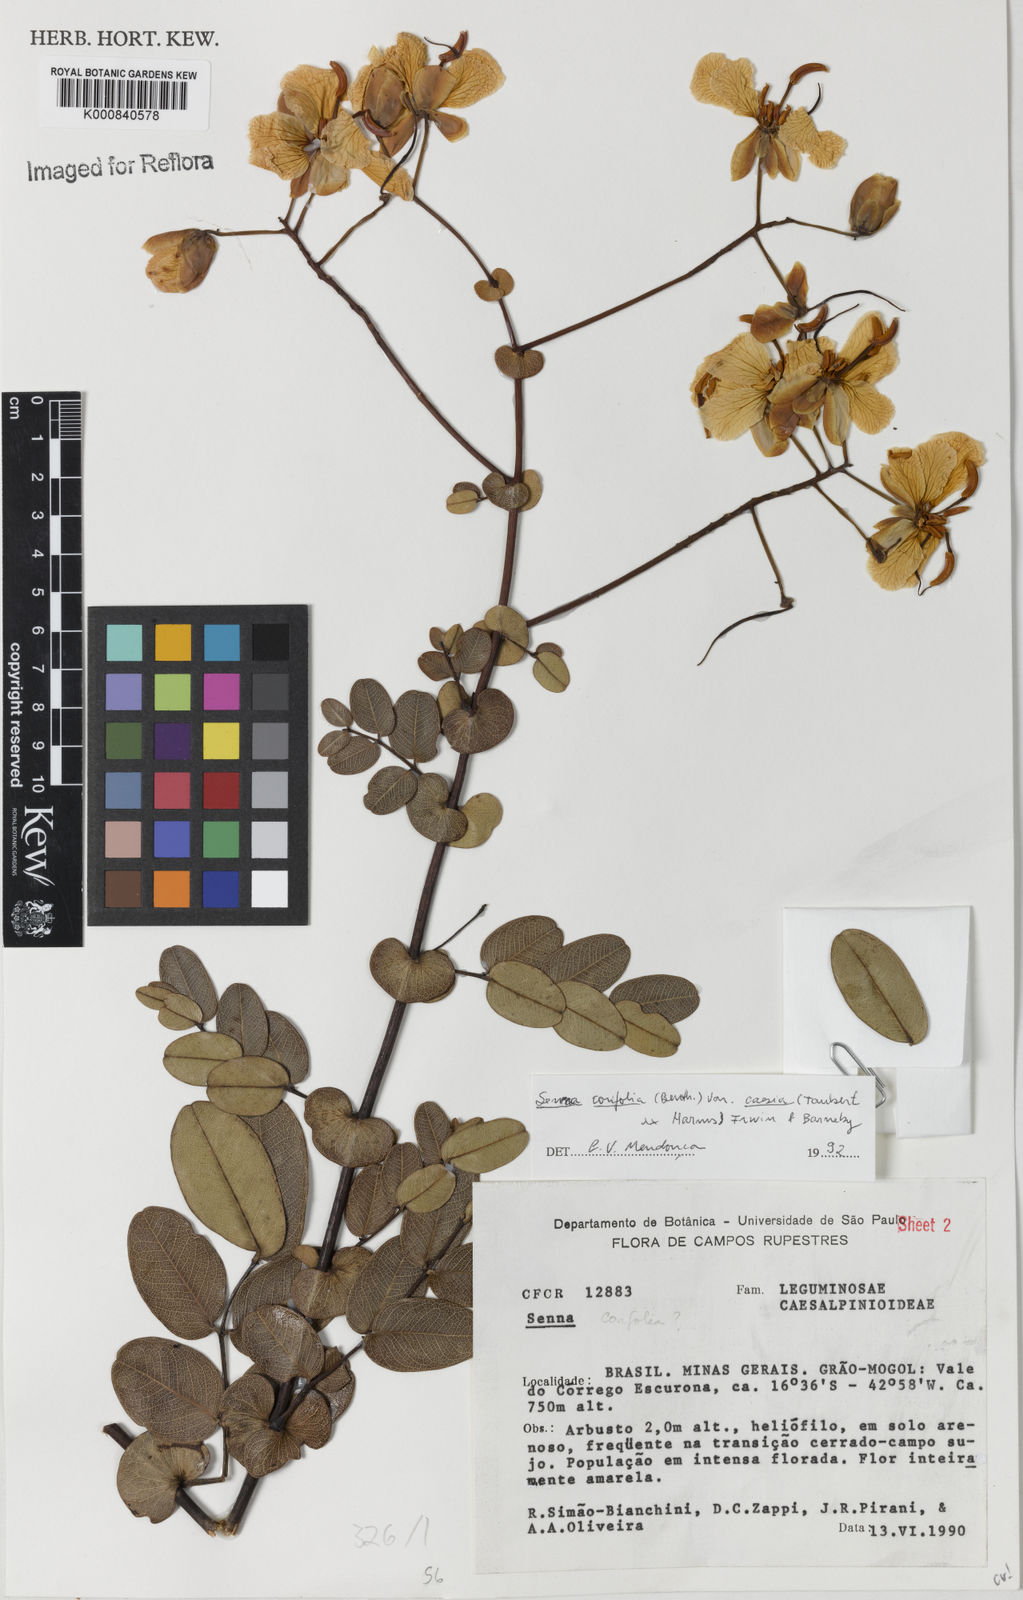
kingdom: Plantae
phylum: Tracheophyta
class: Magnoliopsida
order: Fabales
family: Fabaceae
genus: Senna
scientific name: Senna corifolia
